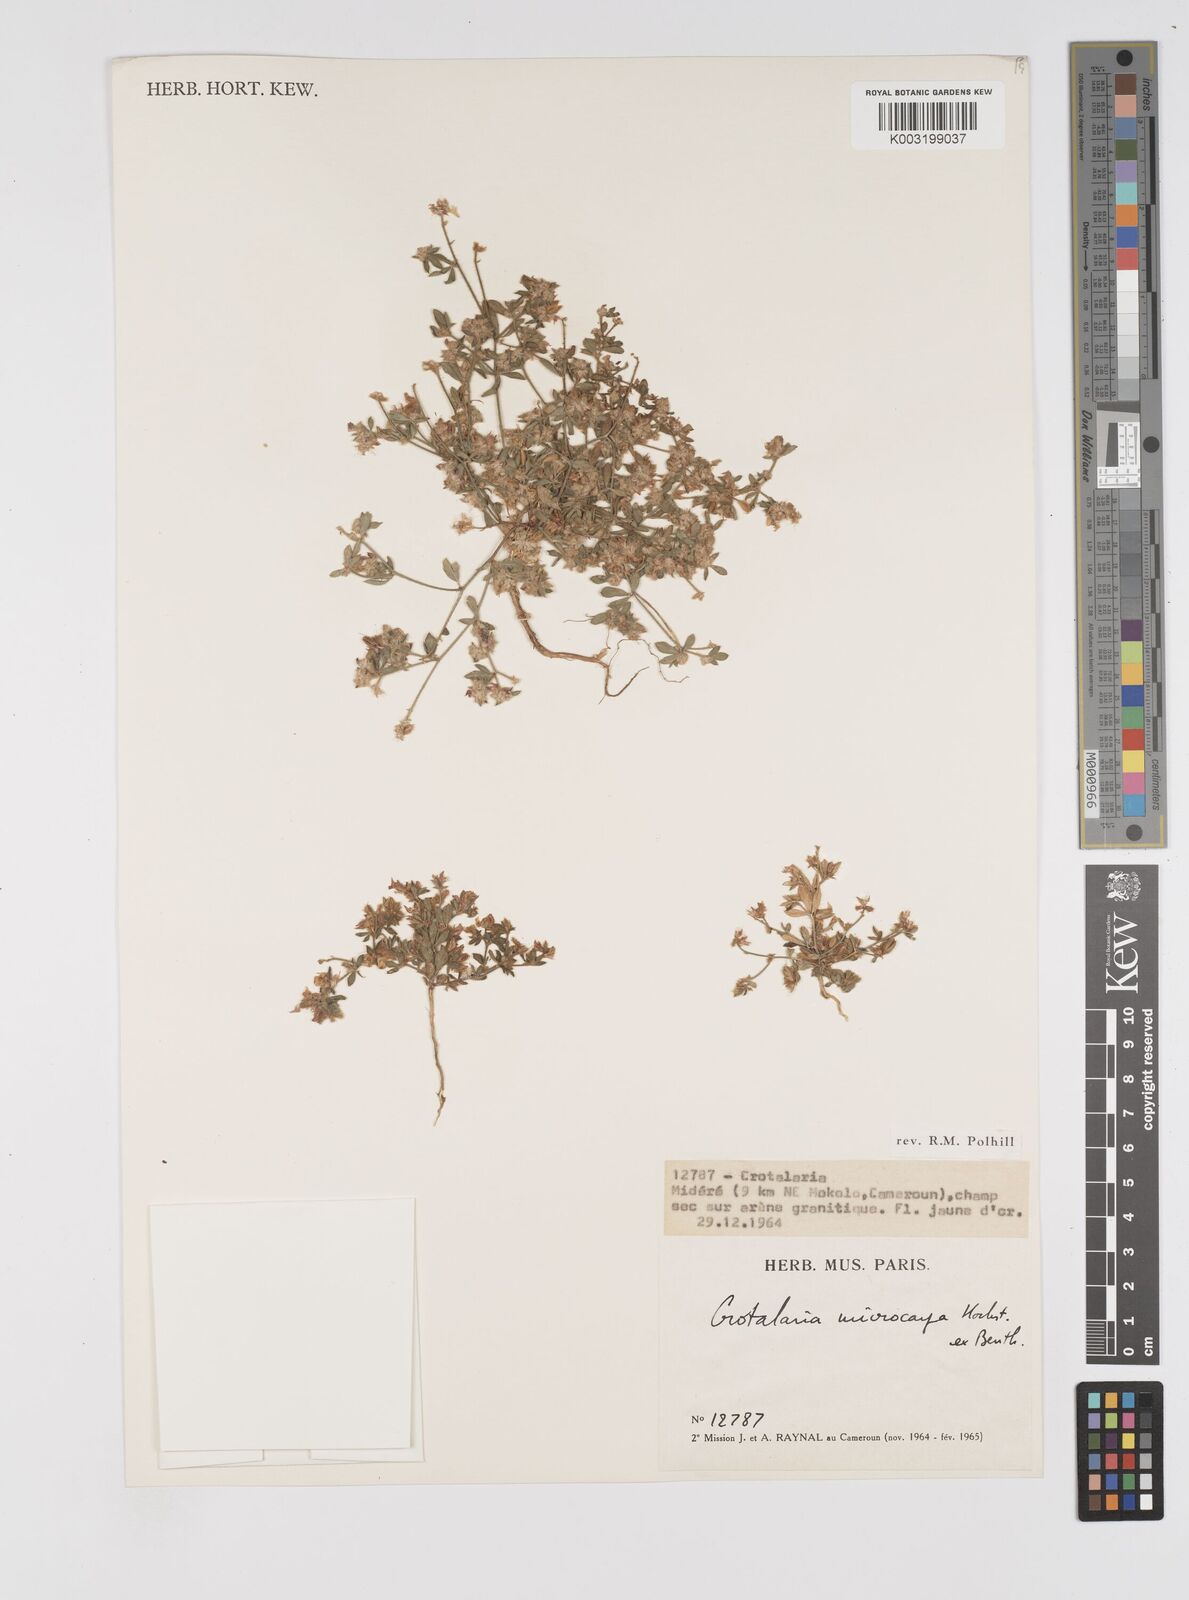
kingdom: Plantae
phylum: Tracheophyta
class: Magnoliopsida
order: Fabales
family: Fabaceae
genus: Crotalaria
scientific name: Crotalaria microcarpa
